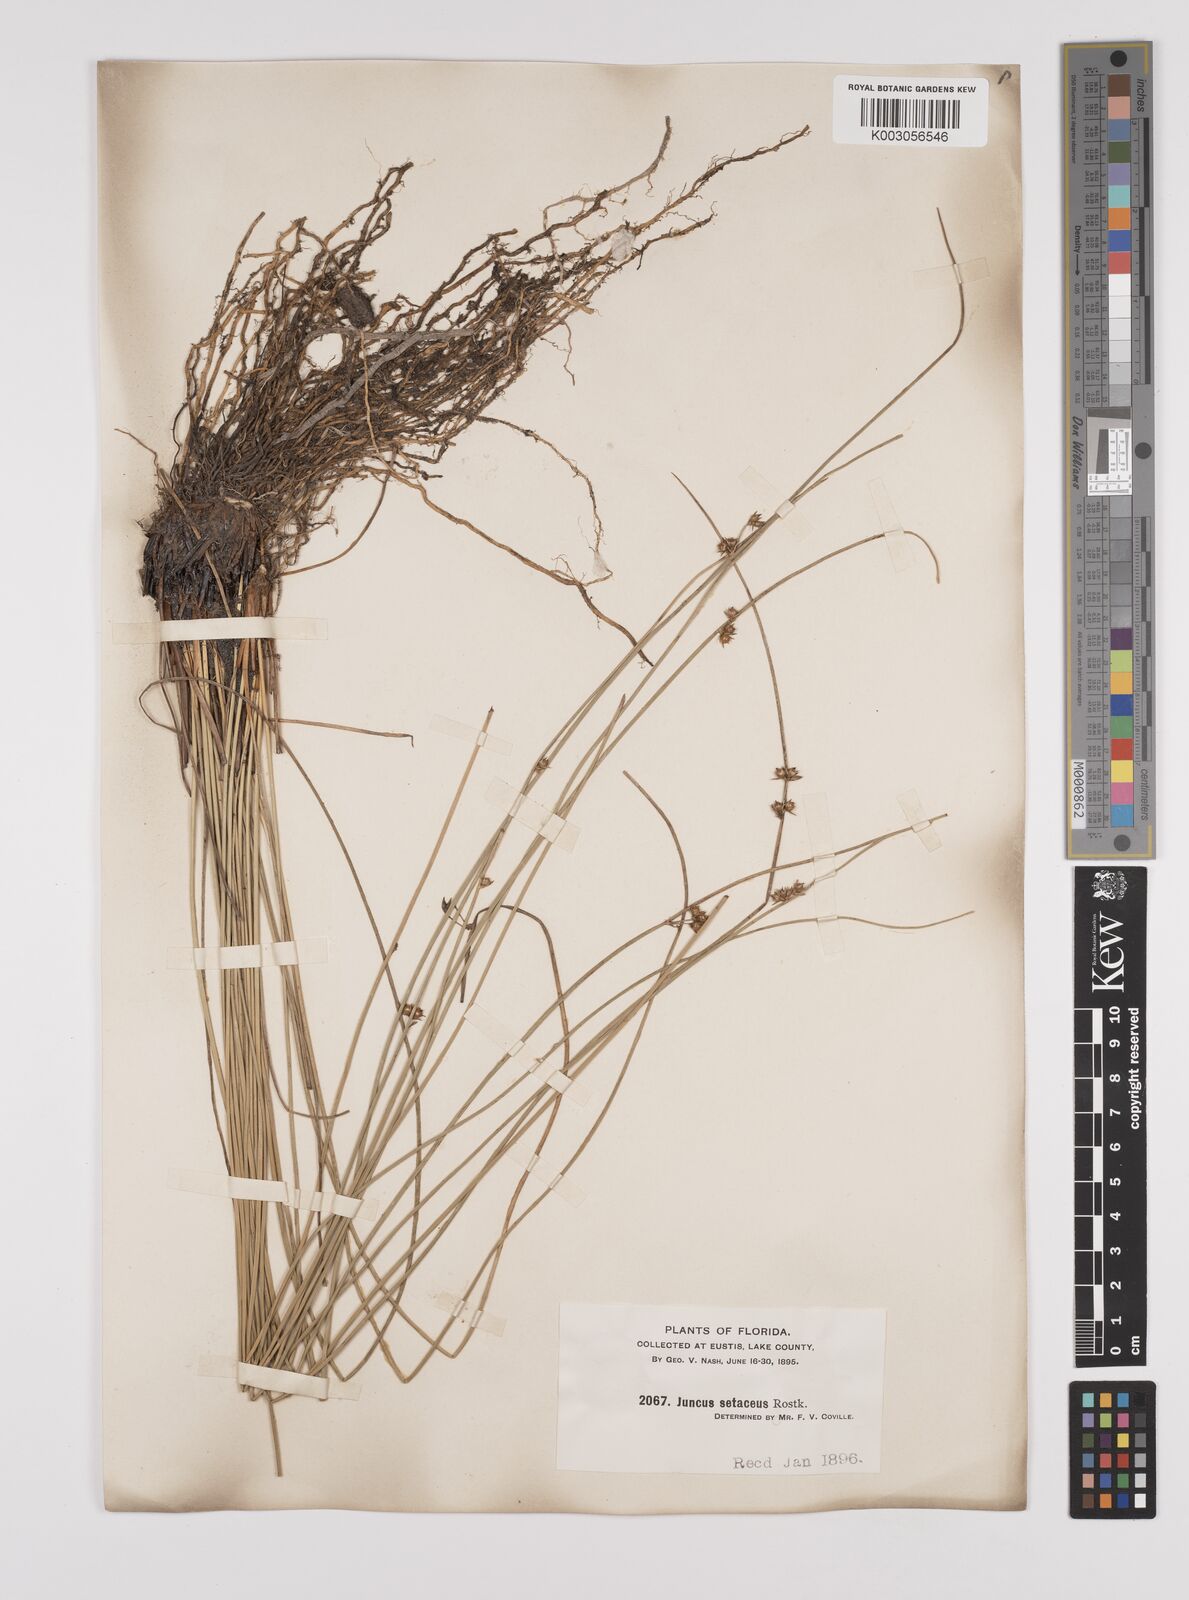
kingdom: Plantae
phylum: Tracheophyta
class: Liliopsida
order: Poales
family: Juncaceae
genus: Juncus
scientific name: Juncus balticus
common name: Baltic rush
